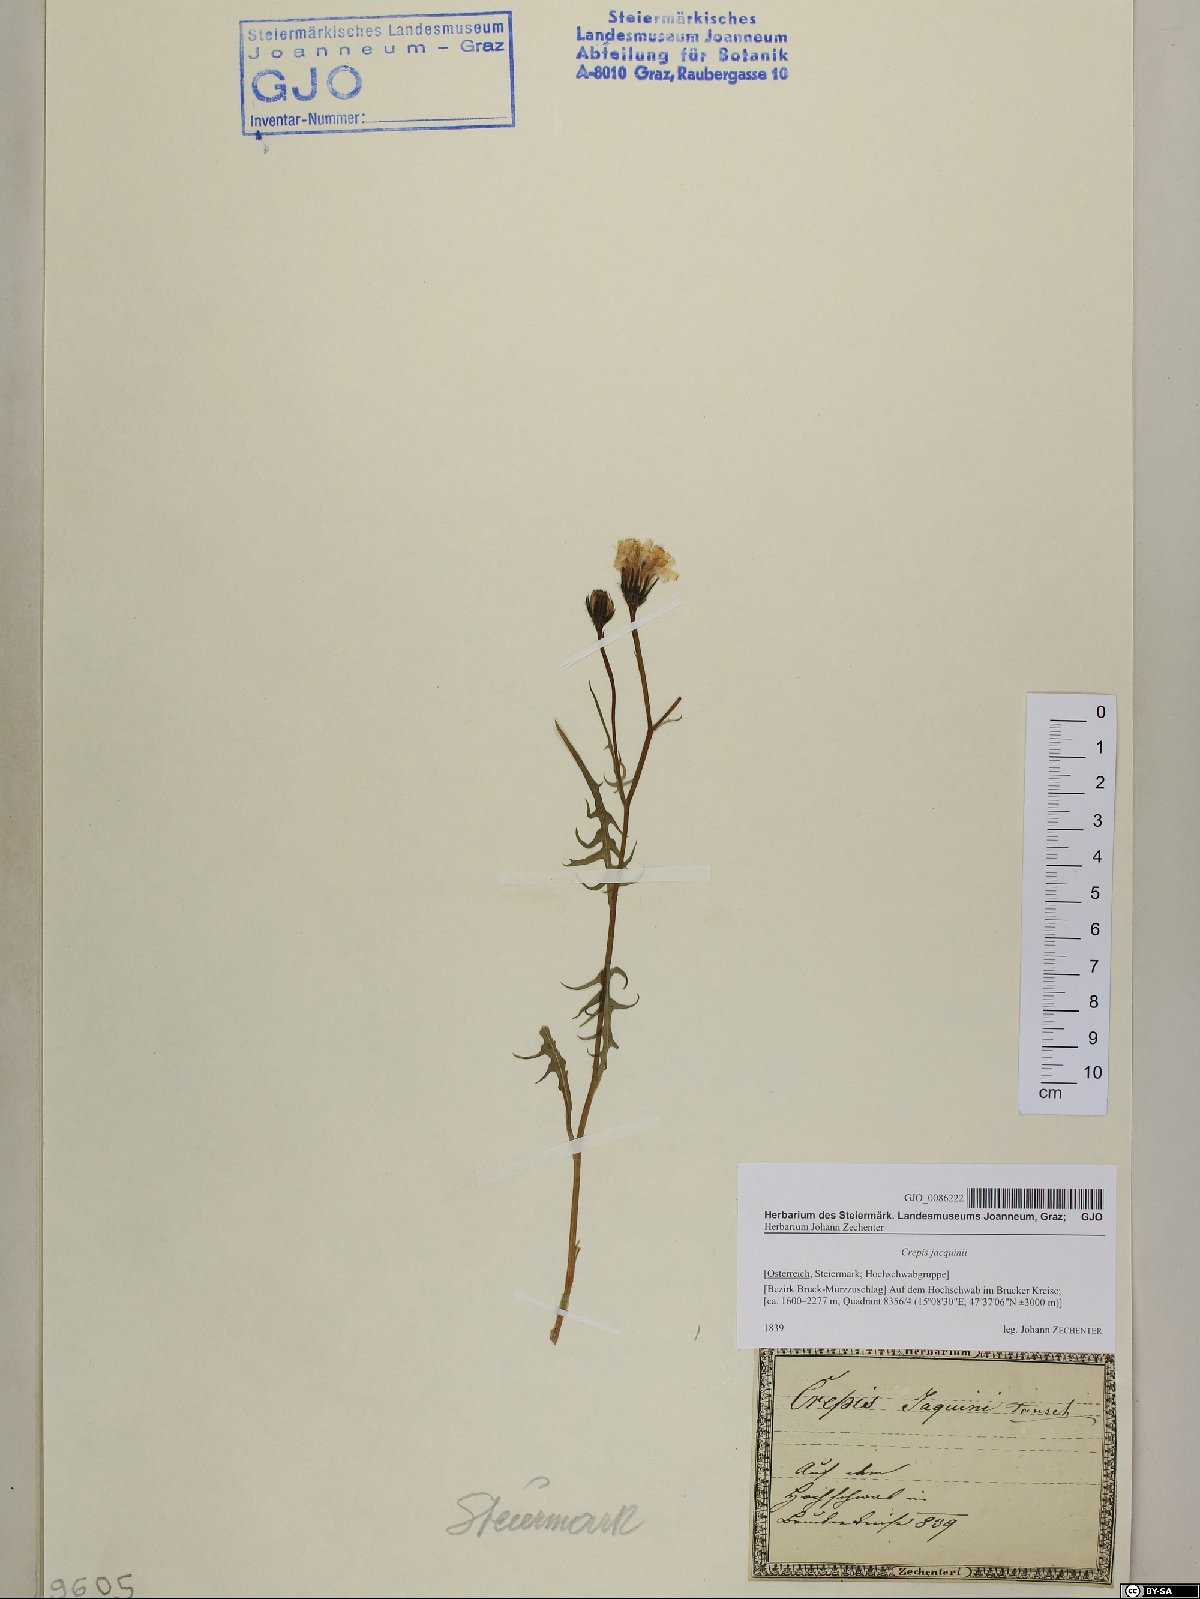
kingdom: Plantae
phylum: Tracheophyta
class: Magnoliopsida
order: Asterales
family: Asteraceae
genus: Crepis
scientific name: Crepis jacquinii
